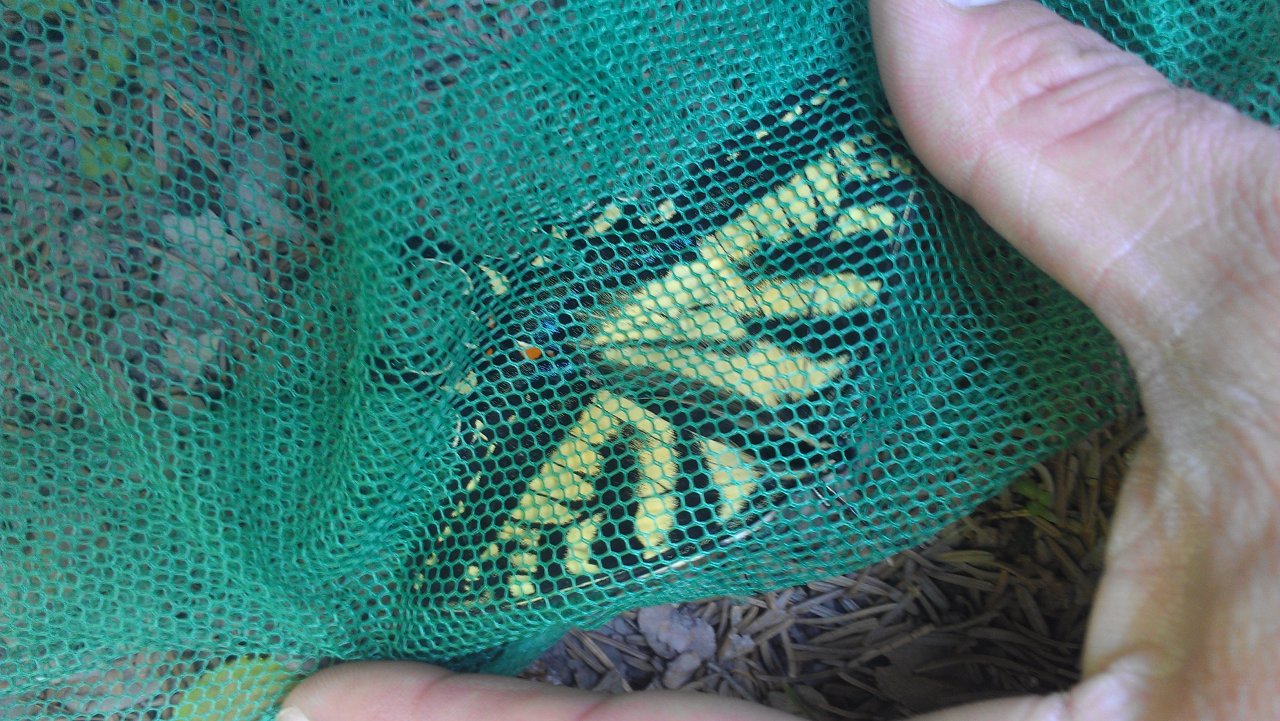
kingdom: Animalia
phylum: Arthropoda
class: Insecta
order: Lepidoptera
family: Papilionidae
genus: Pterourus
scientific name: Pterourus canadensis
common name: Canadian Tiger Swallowtail
